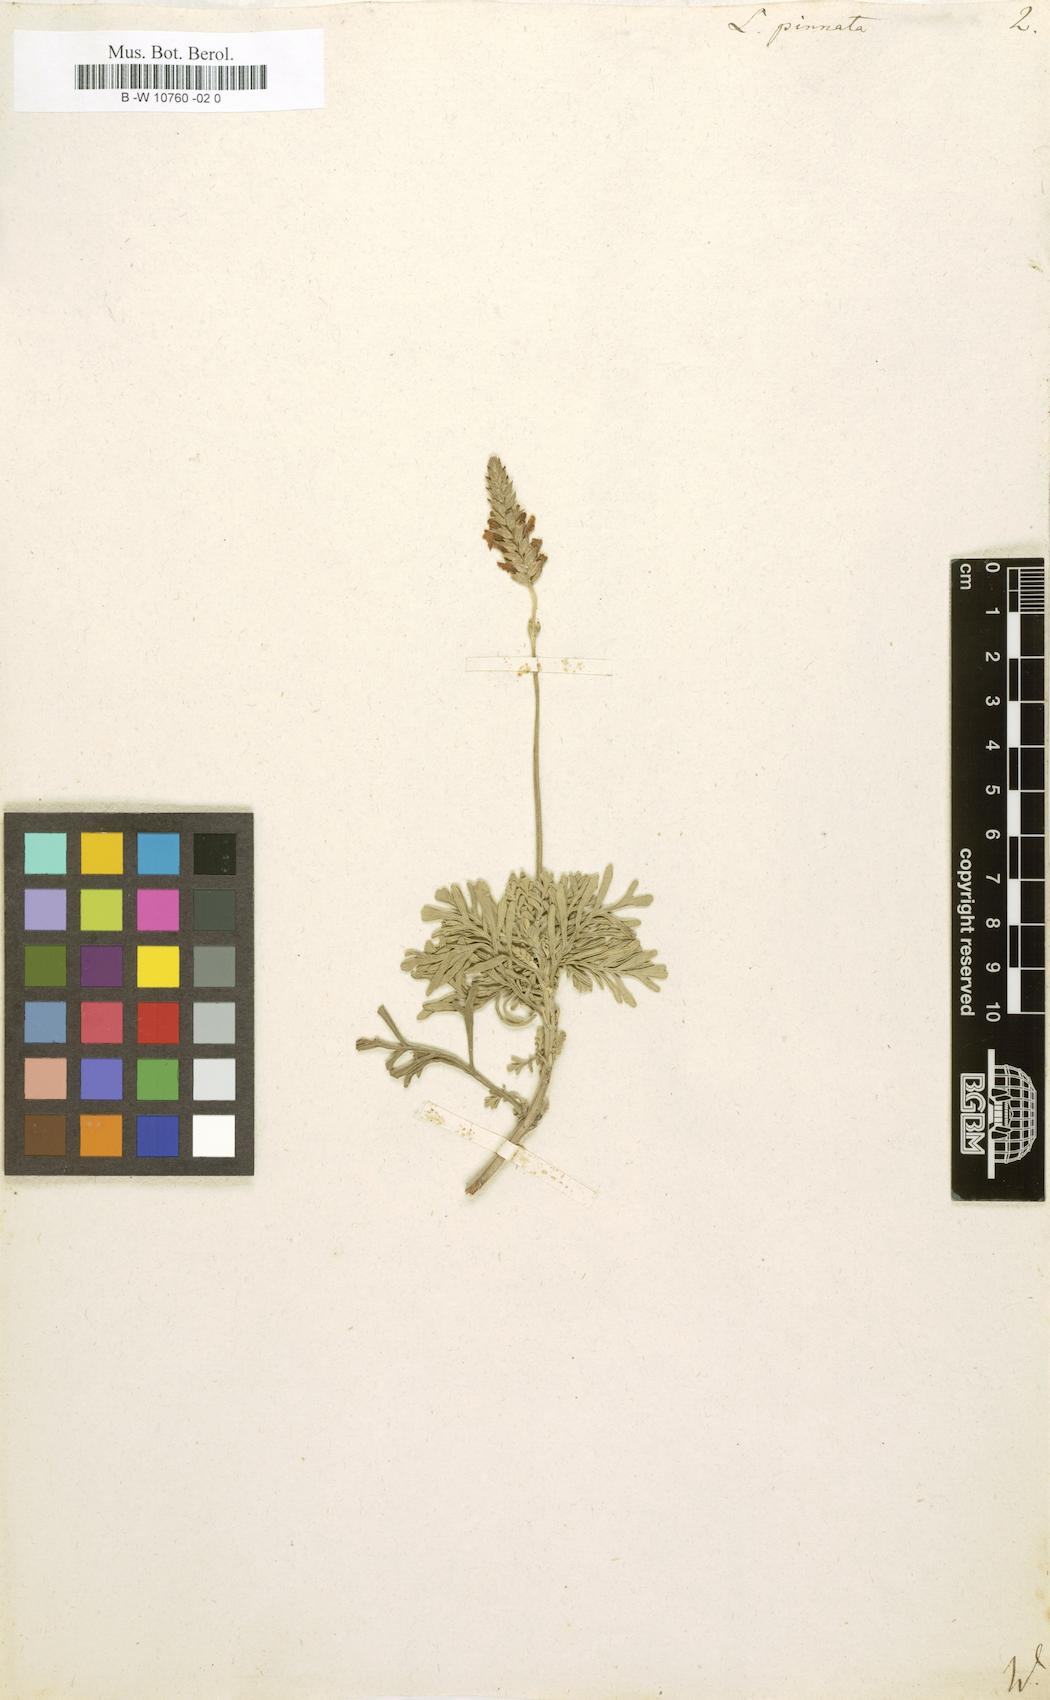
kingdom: Plantae
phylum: Tracheophyta
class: Magnoliopsida
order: Lamiales
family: Lamiaceae
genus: Lavandula
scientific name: Lavandula pinnata
